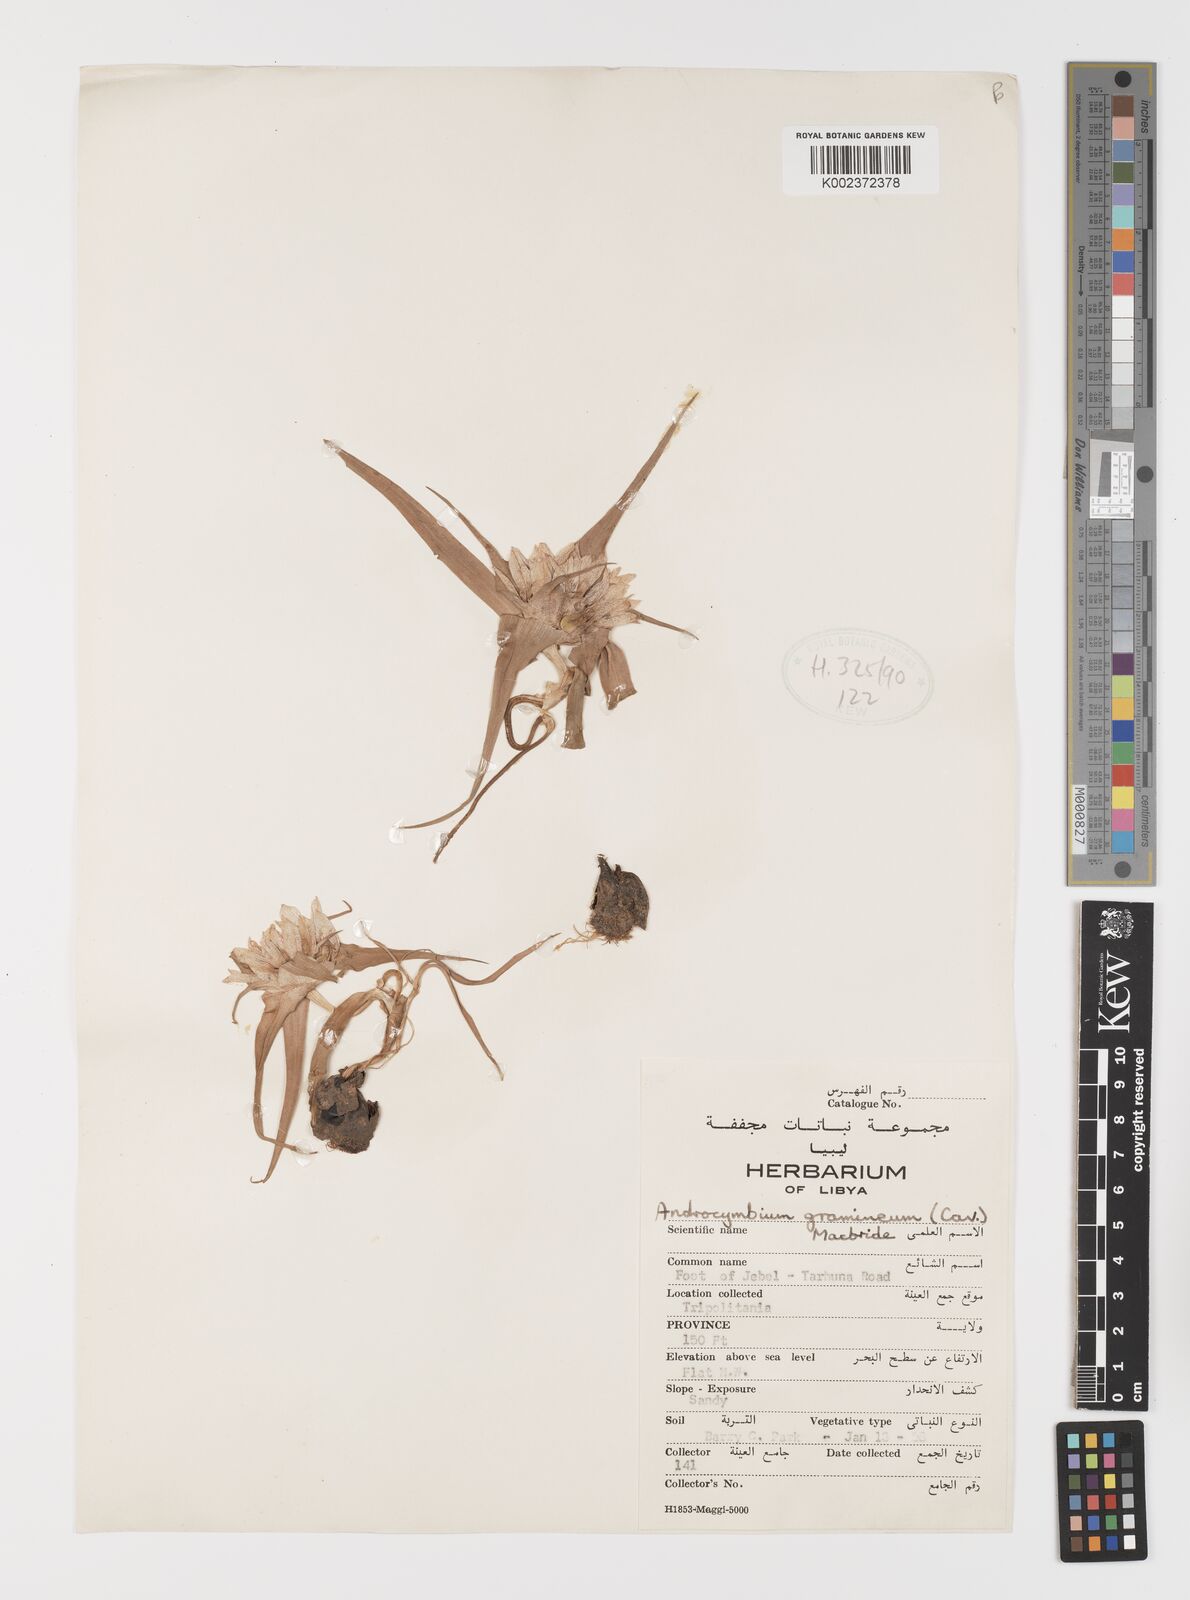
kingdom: Plantae
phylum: Tracheophyta
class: Liliopsida
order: Liliales
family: Colchicaceae
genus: Colchicum
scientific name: Colchicum gramineum
